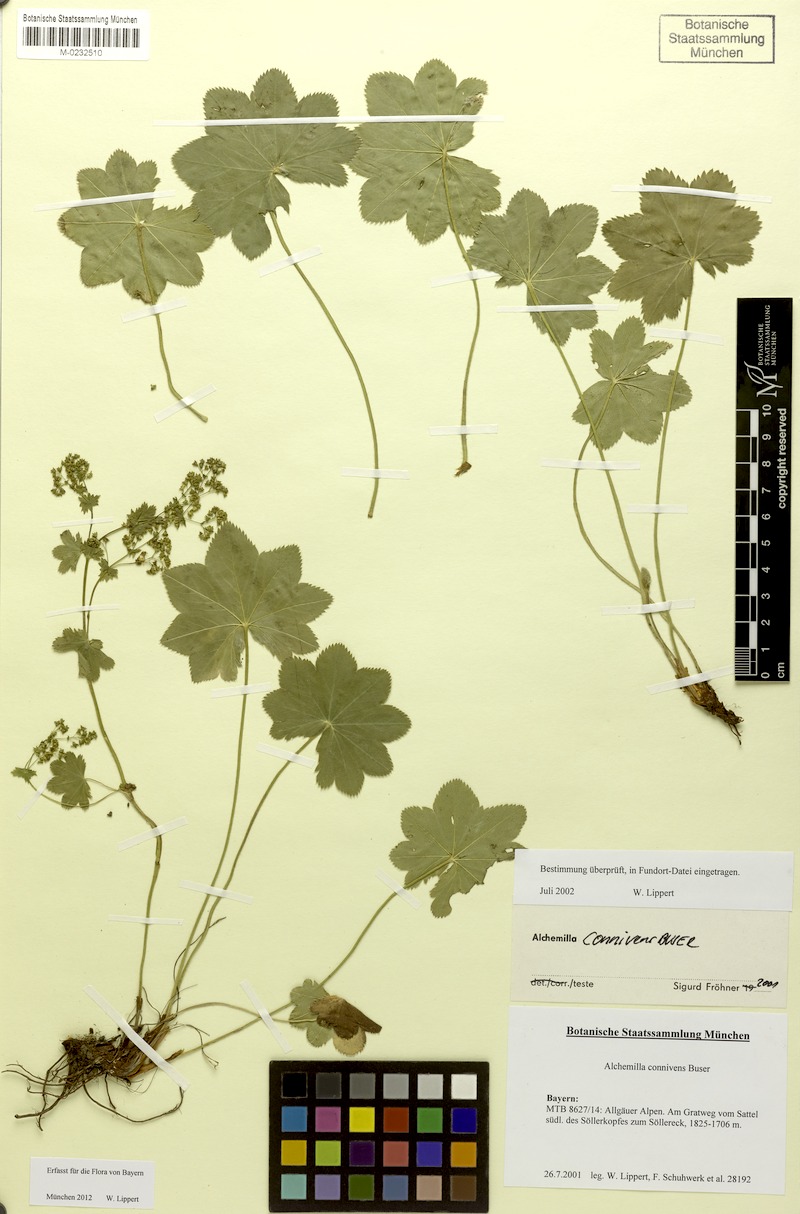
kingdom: Plantae
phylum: Tracheophyta
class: Magnoliopsida
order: Rosales
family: Rosaceae
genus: Alchemilla
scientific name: Alchemilla connivens
